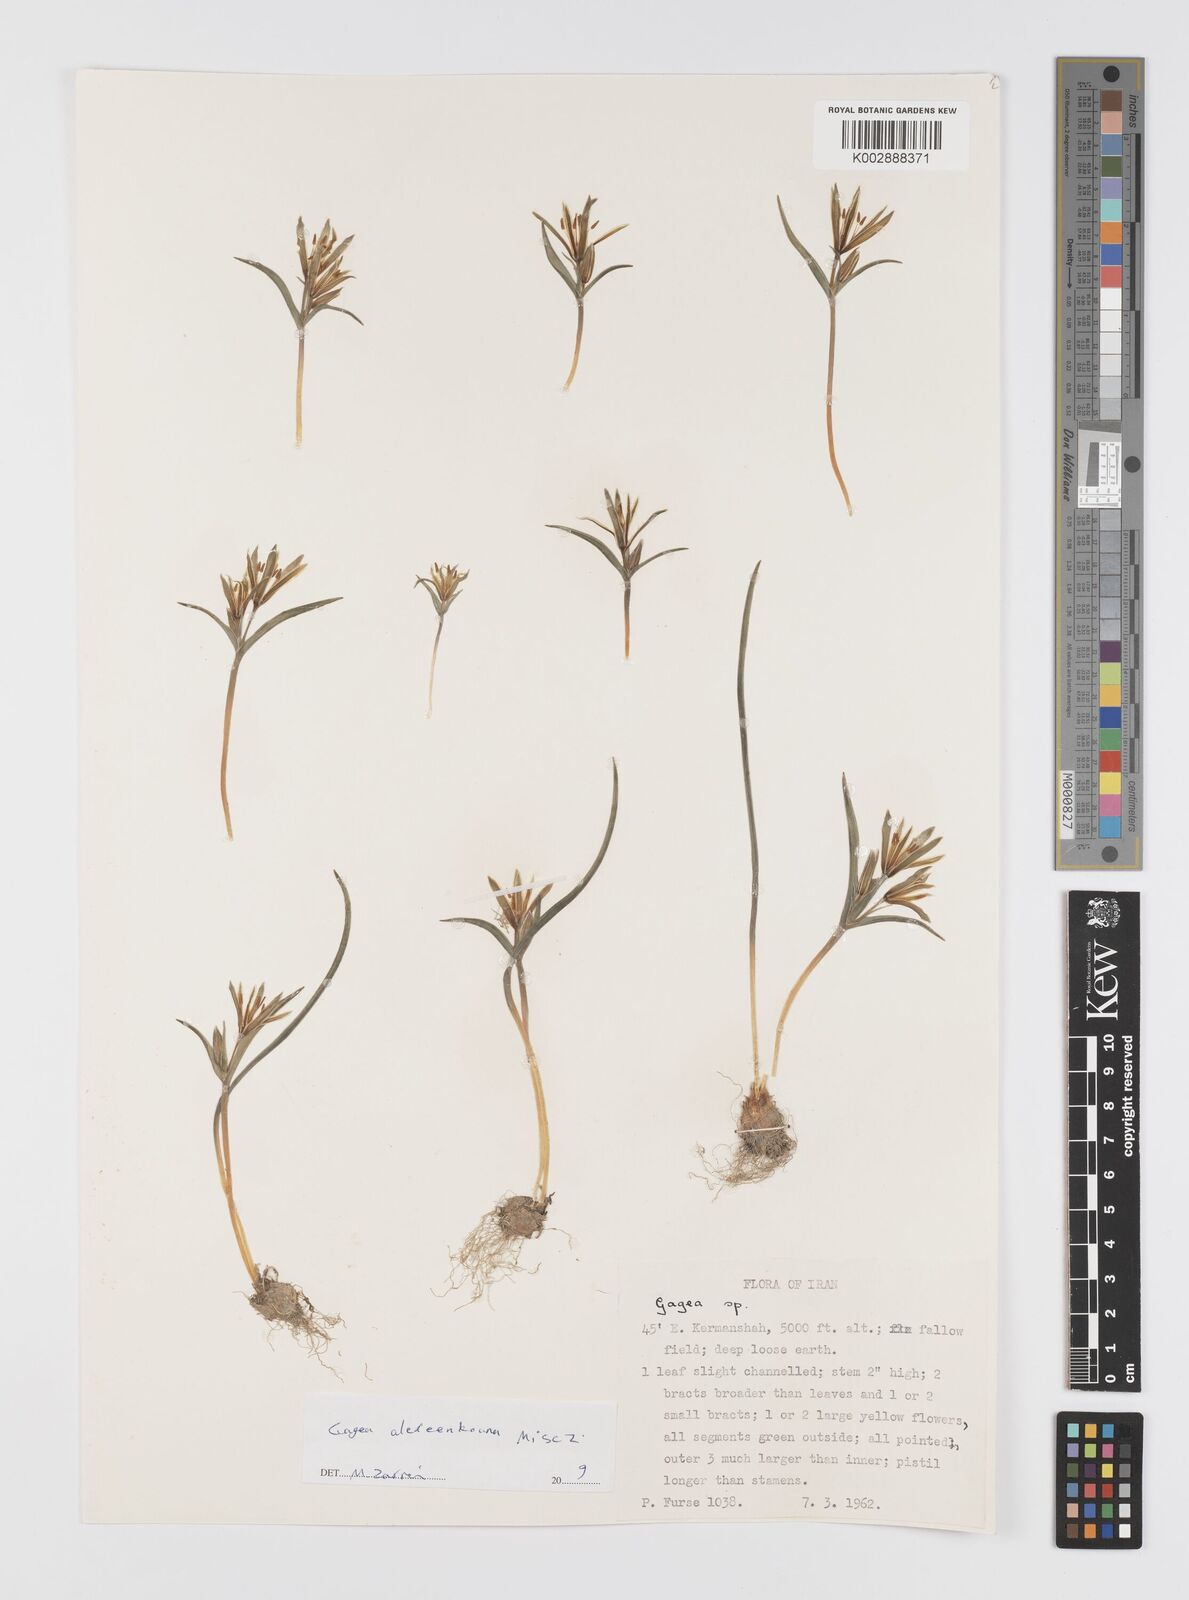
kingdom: Plantae
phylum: Tracheophyta
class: Liliopsida
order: Liliales
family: Liliaceae
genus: Gagea
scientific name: Gagea alexeenkoana
